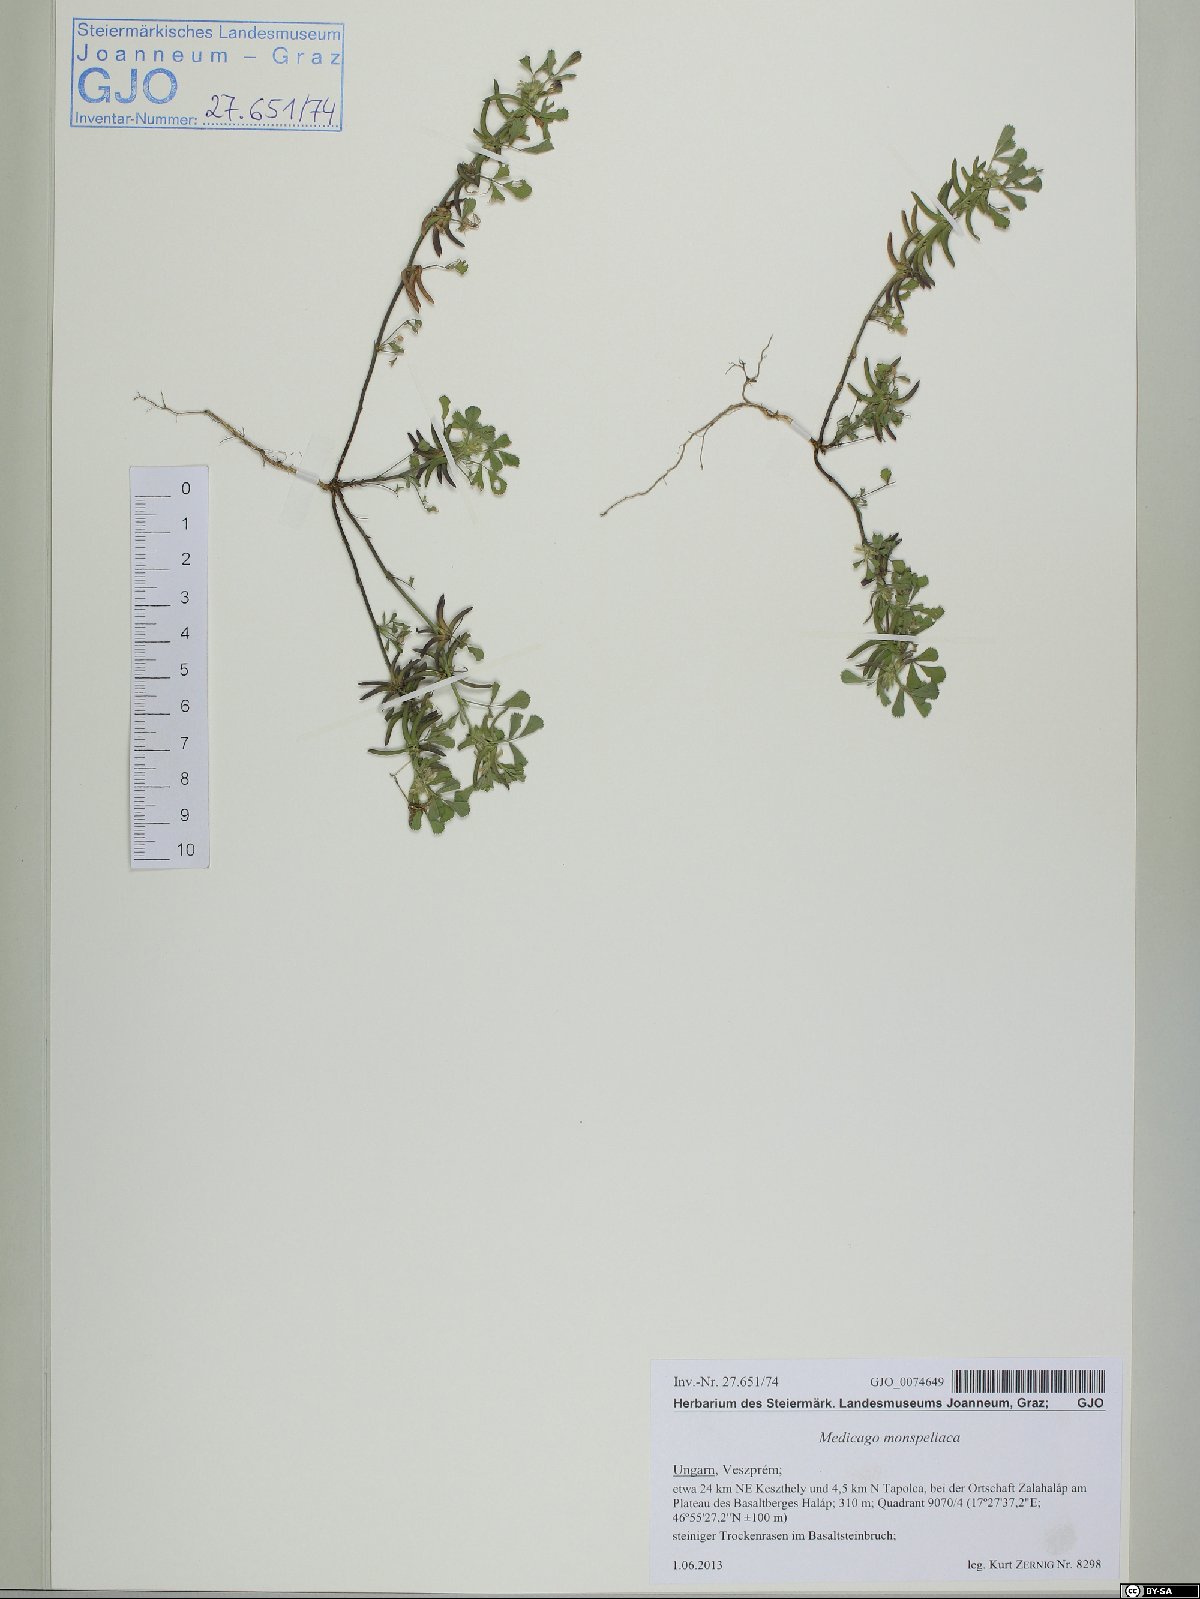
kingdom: Plantae
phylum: Tracheophyta
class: Magnoliopsida
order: Fabales
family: Fabaceae
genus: Medicago
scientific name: Medicago monspeliaca
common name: Hairy medick
